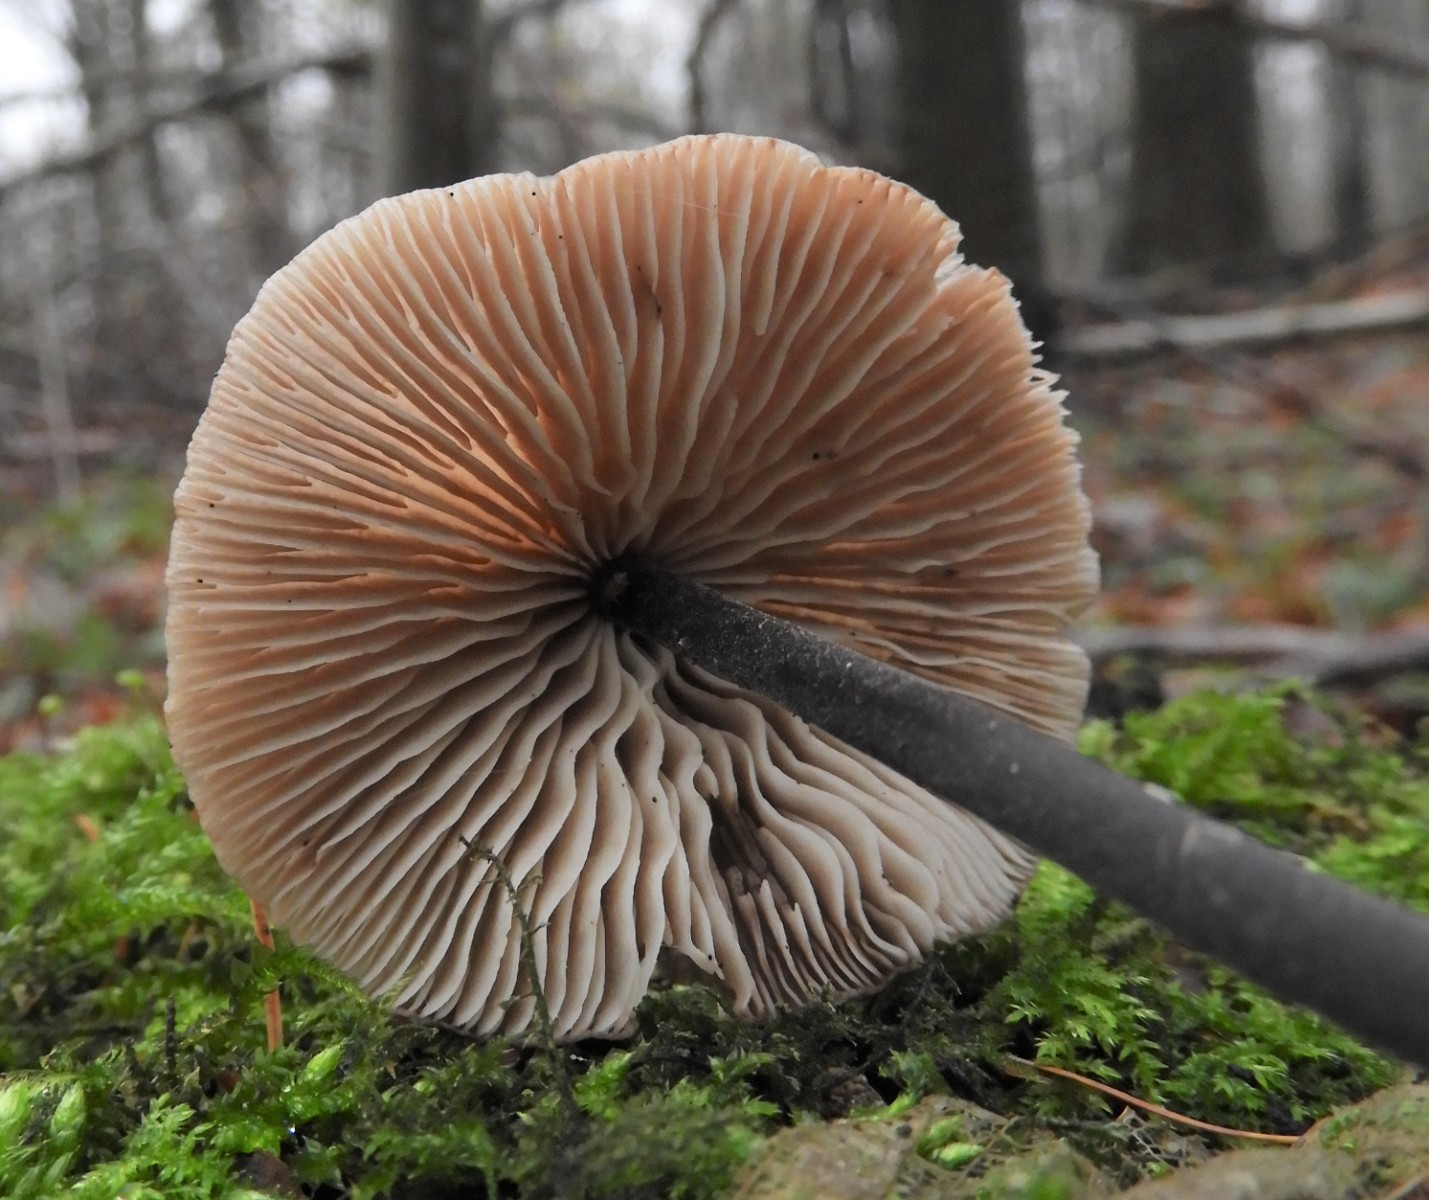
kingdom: Fungi
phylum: Basidiomycota
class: Agaricomycetes
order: Agaricales
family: Omphalotaceae
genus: Mycetinis
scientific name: Mycetinis alliaceus
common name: stor løghat
